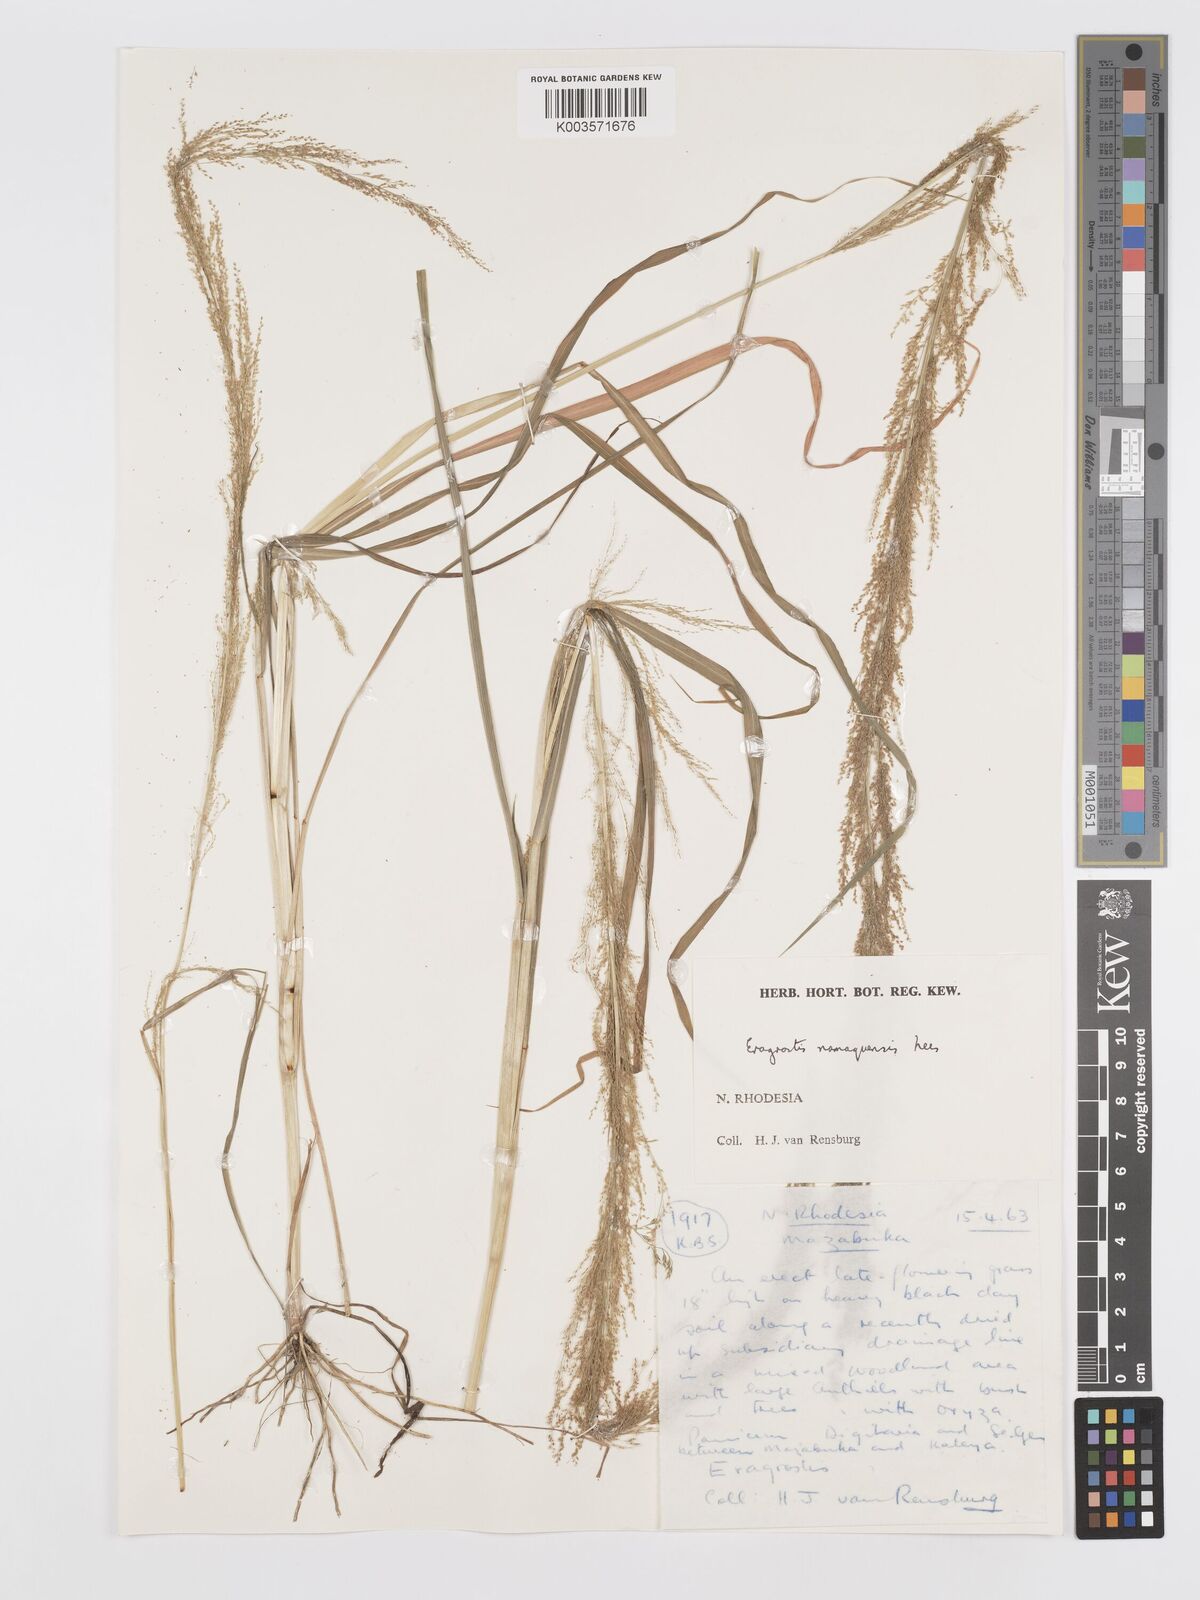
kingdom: Plantae
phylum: Tracheophyta
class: Liliopsida
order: Poales
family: Poaceae
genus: Eragrostis
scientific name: Eragrostis japonica
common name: Pond lovegrass
